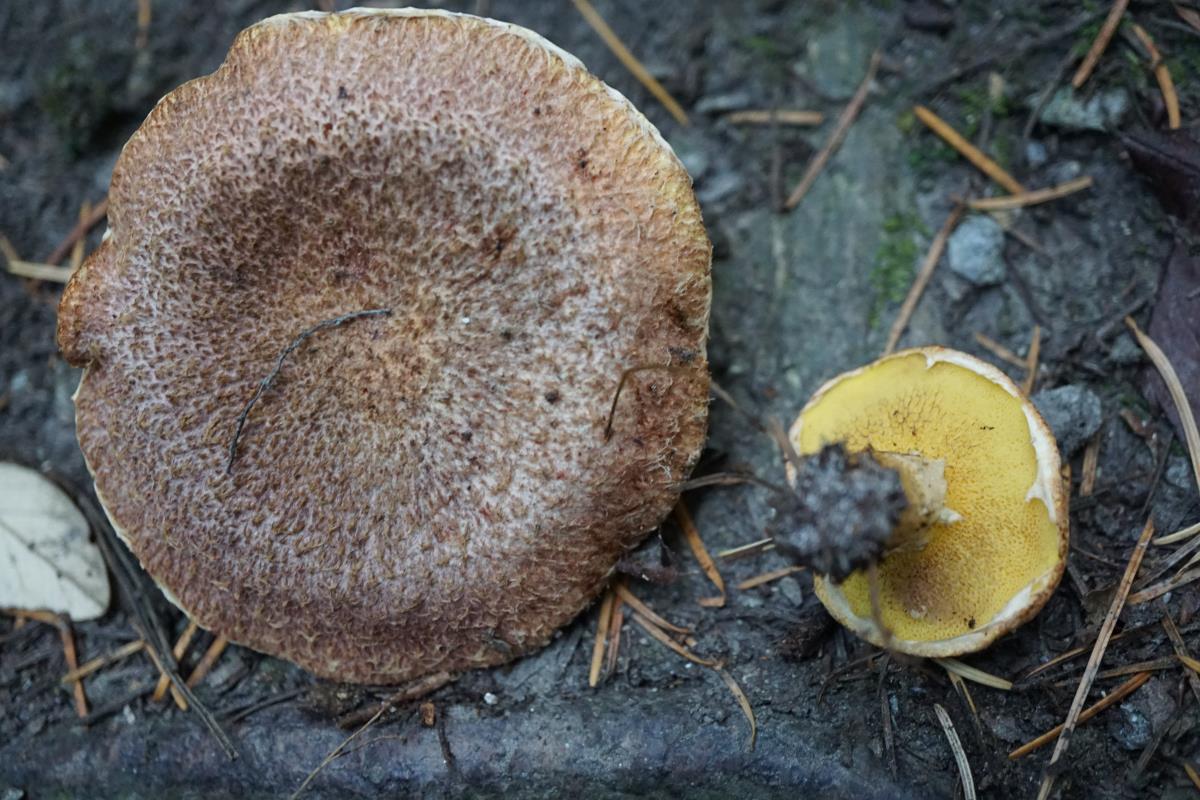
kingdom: Fungi
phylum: Basidiomycota
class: Agaricomycetes
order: Boletales
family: Suillaceae
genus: Suillus
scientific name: Suillus lakei
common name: Western painted suillus
